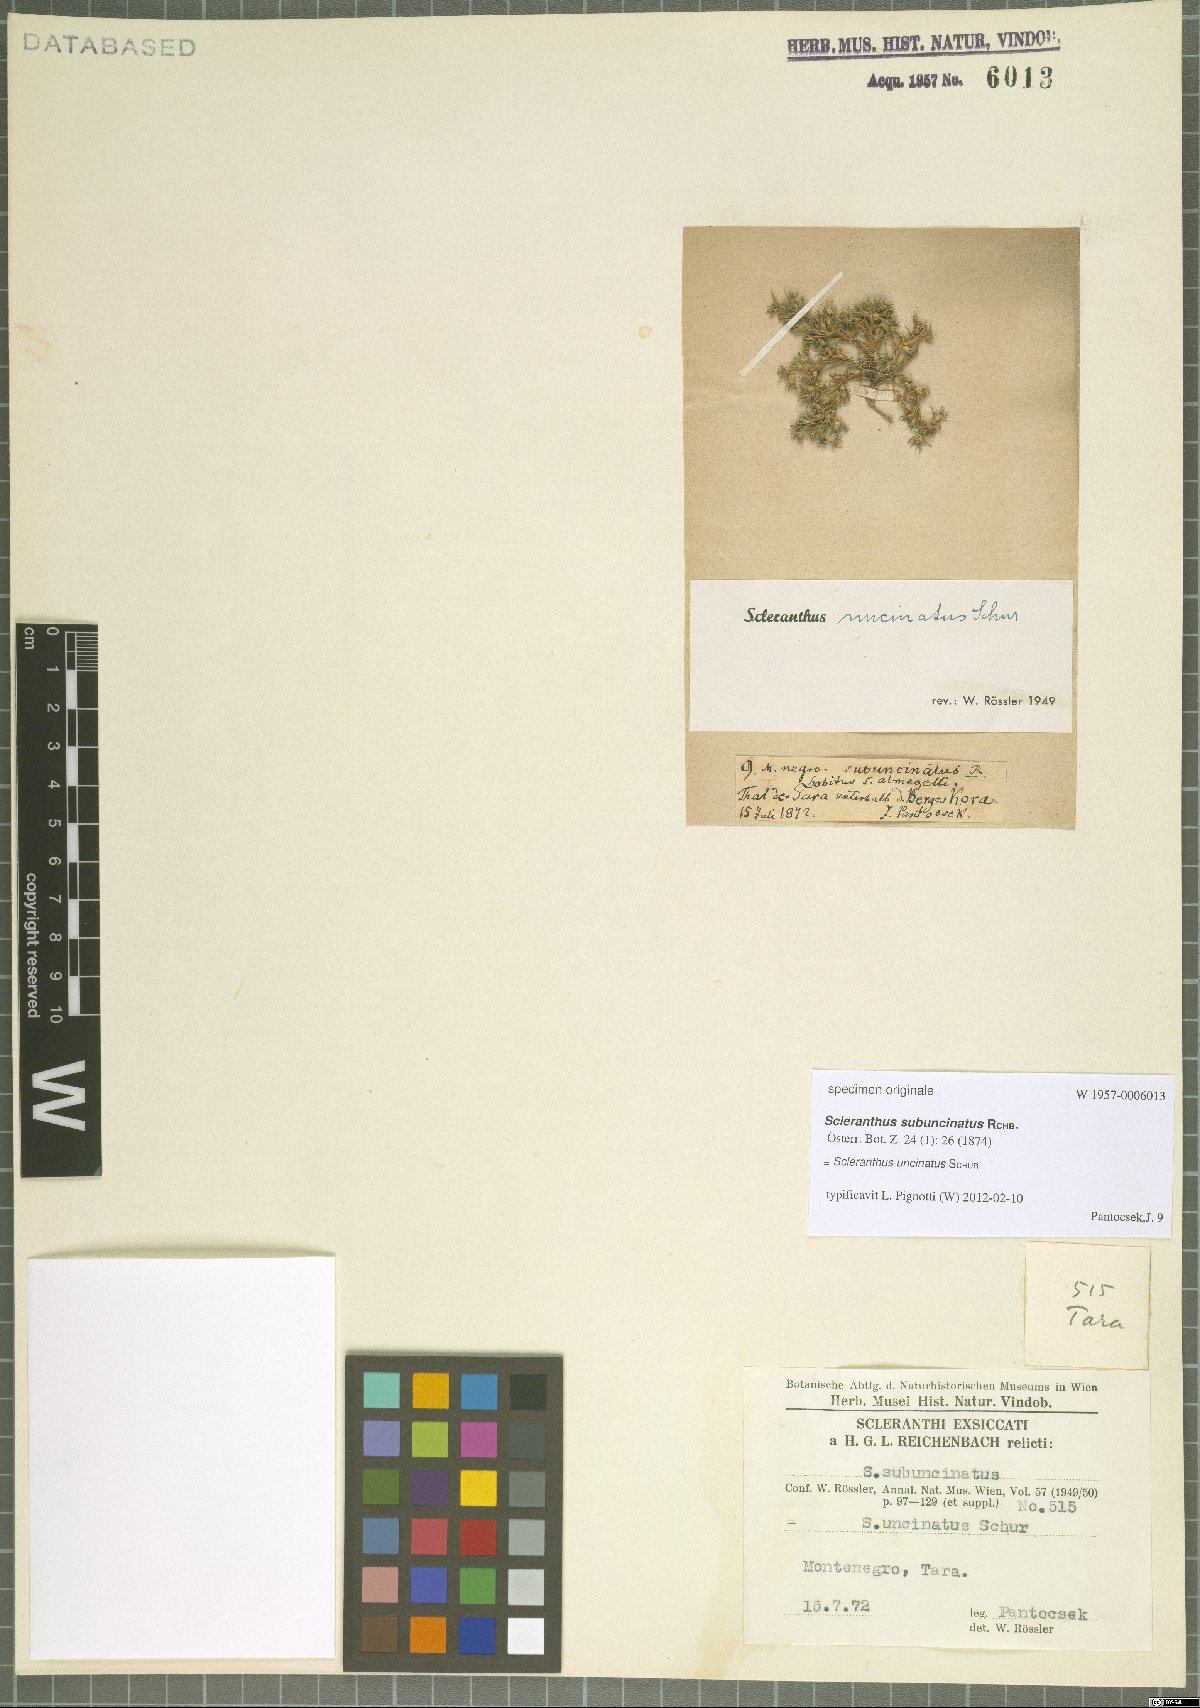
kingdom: Plantae
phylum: Tracheophyta
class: Magnoliopsida
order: Caryophyllales
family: Caryophyllaceae
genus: Scleranthus
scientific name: Scleranthus uncinatus
